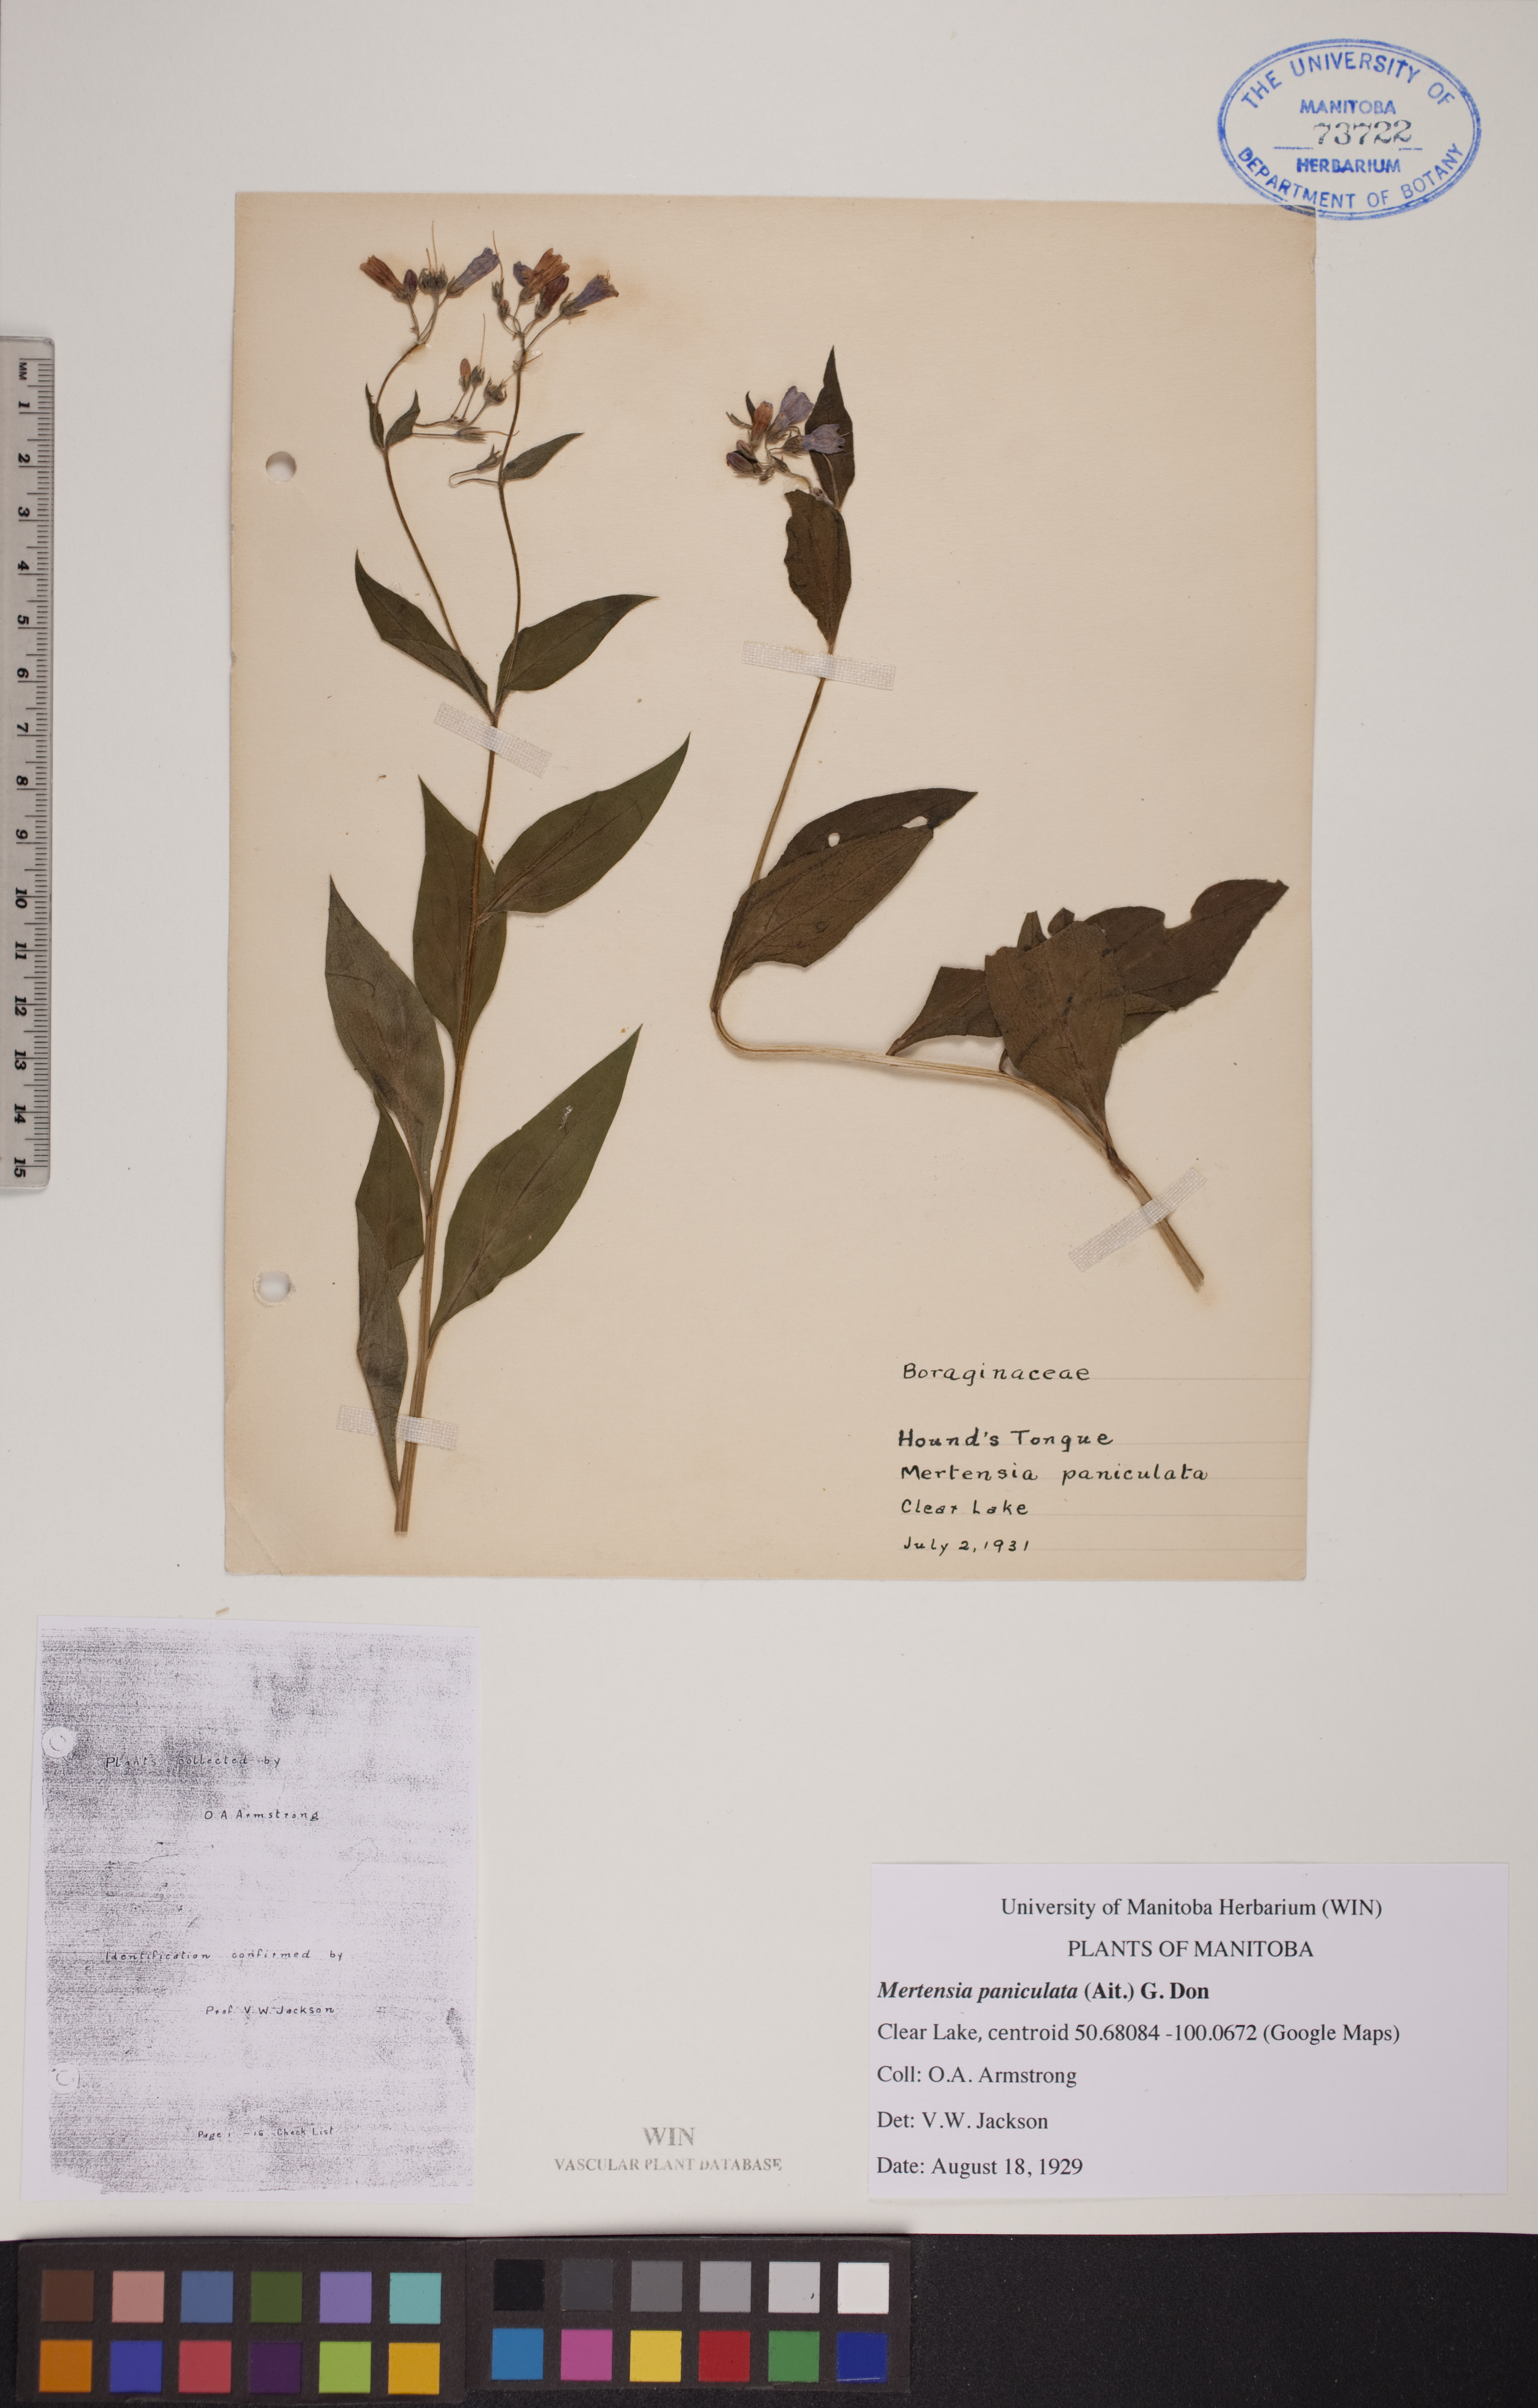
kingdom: Plantae
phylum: Tracheophyta
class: Magnoliopsida
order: Boraginales
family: Boraginaceae
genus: Mertensia
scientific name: Mertensia paniculata
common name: Panicled bluebells
